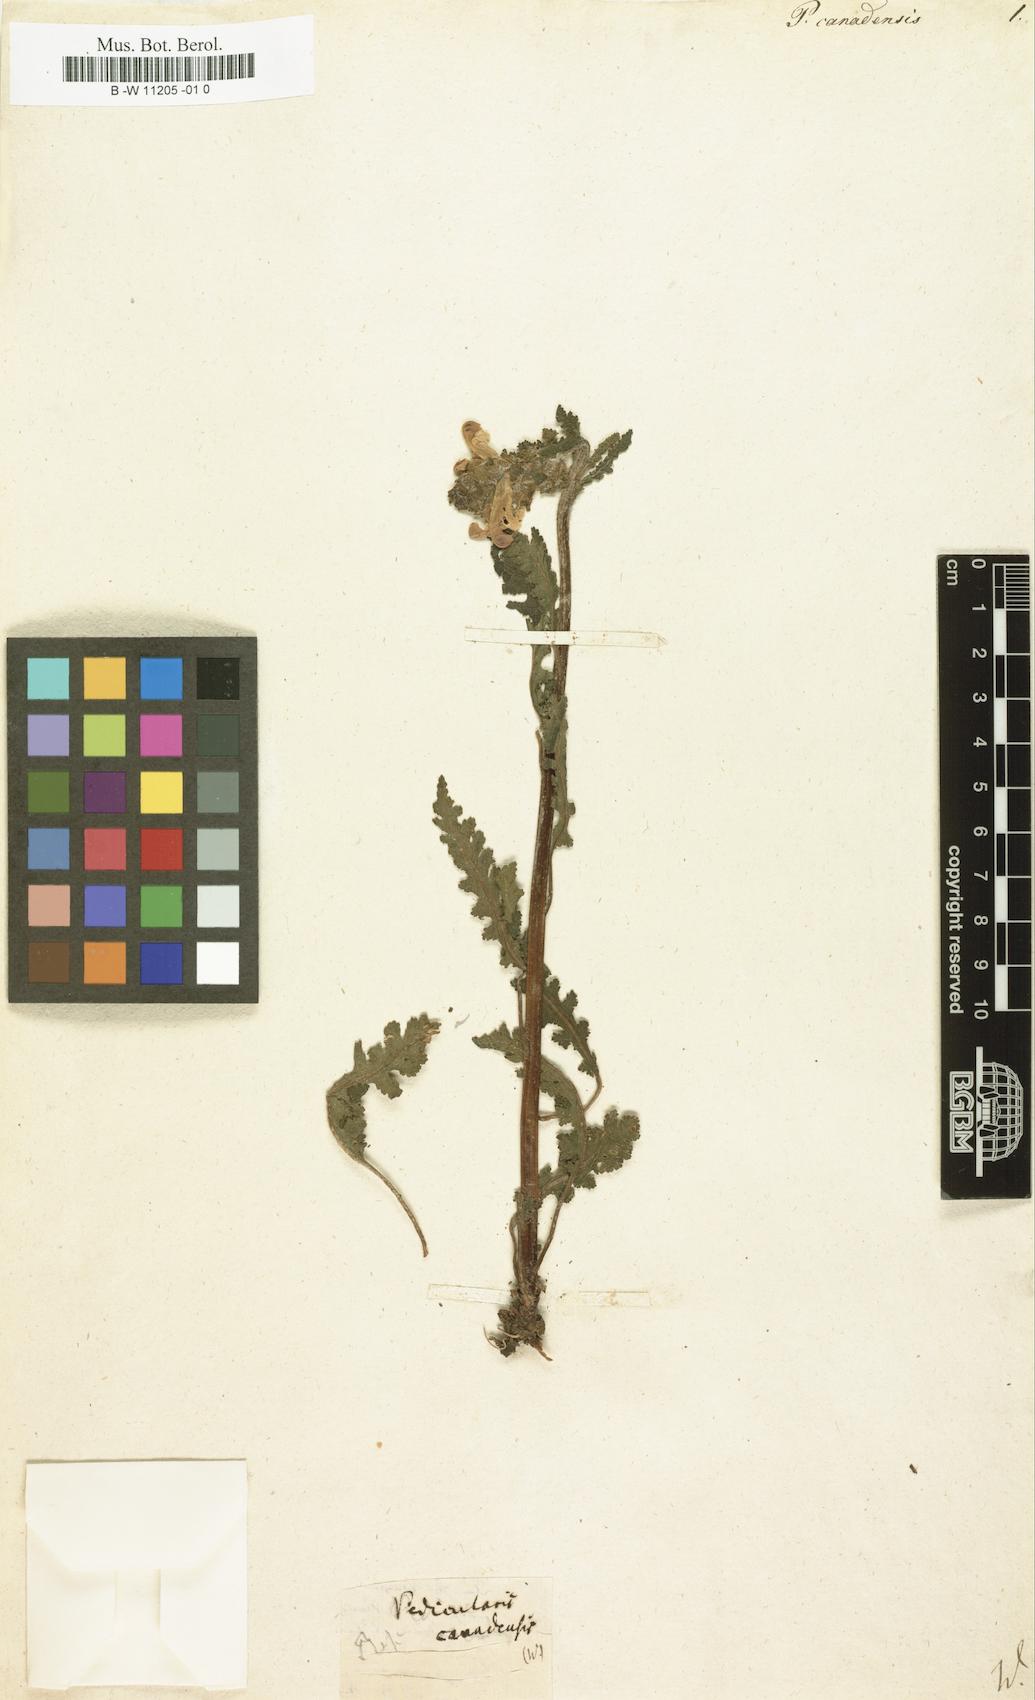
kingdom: Plantae
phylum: Tracheophyta
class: Magnoliopsida
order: Lamiales
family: Orobanchaceae
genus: Pedicularis
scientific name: Pedicularis canadensis
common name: Early lousewort
